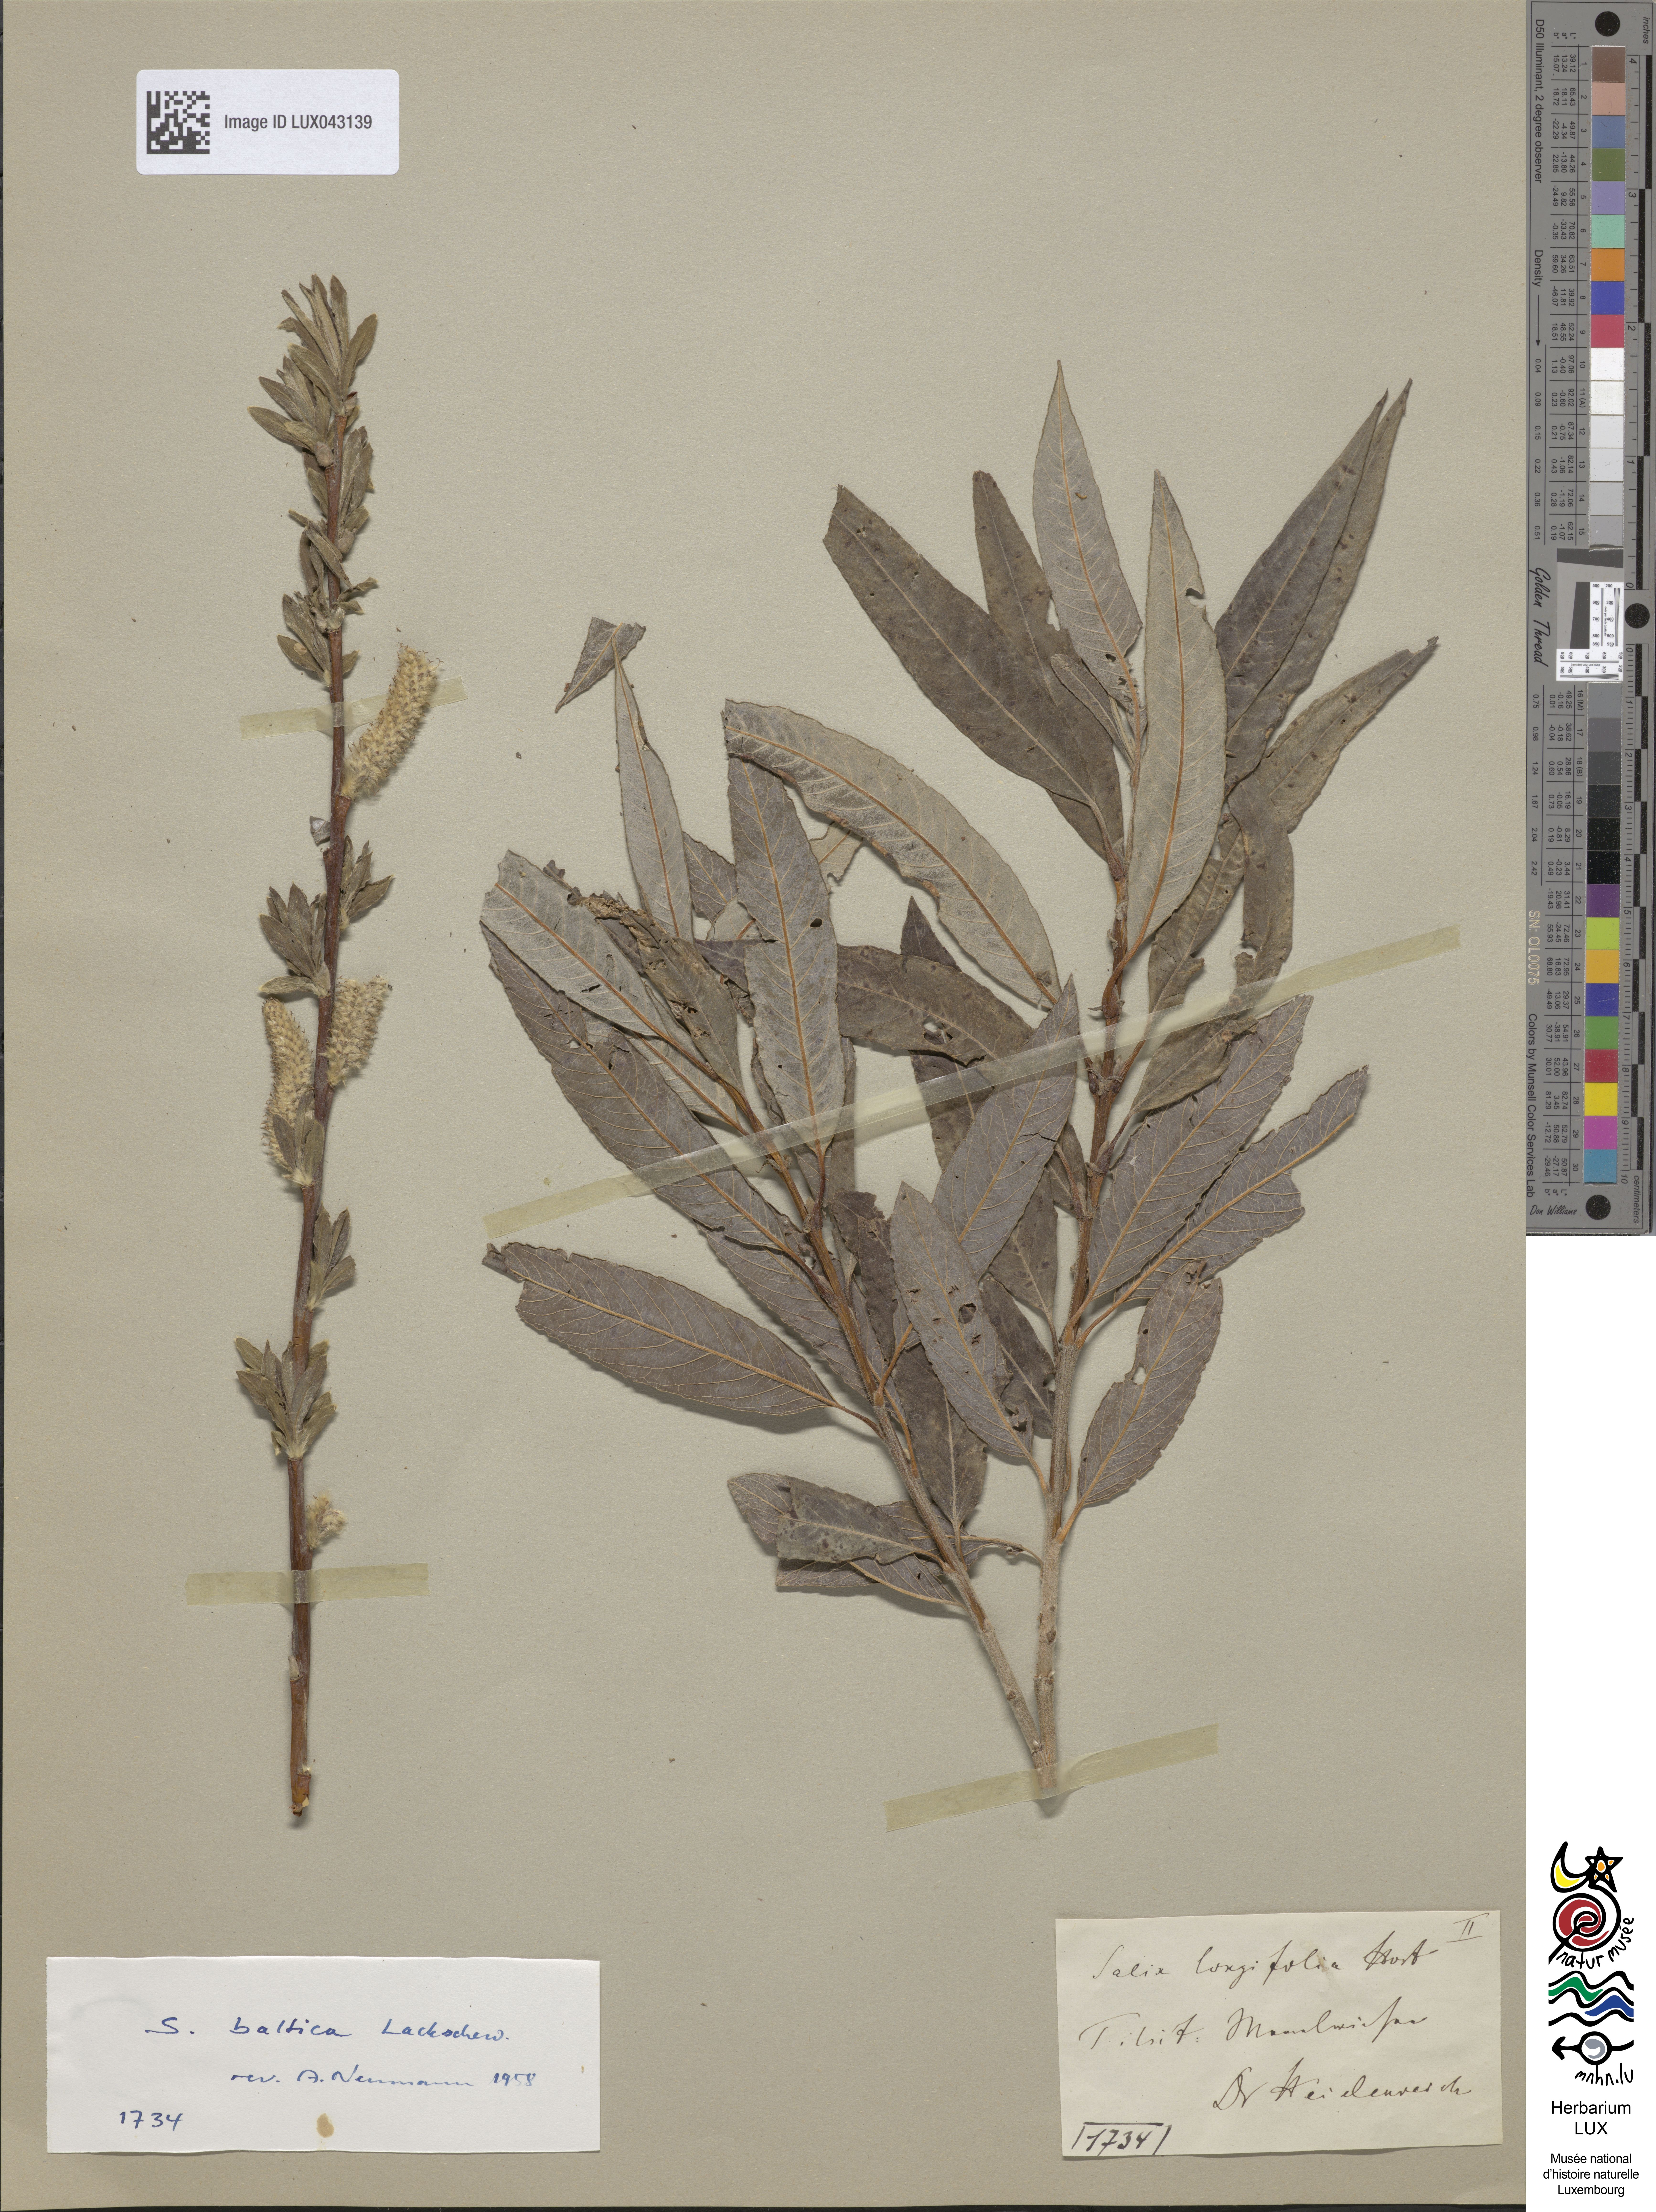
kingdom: Plantae
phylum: Tracheophyta
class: Magnoliopsida
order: Malpighiales
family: Salicaceae
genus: Salix
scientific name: Salix
